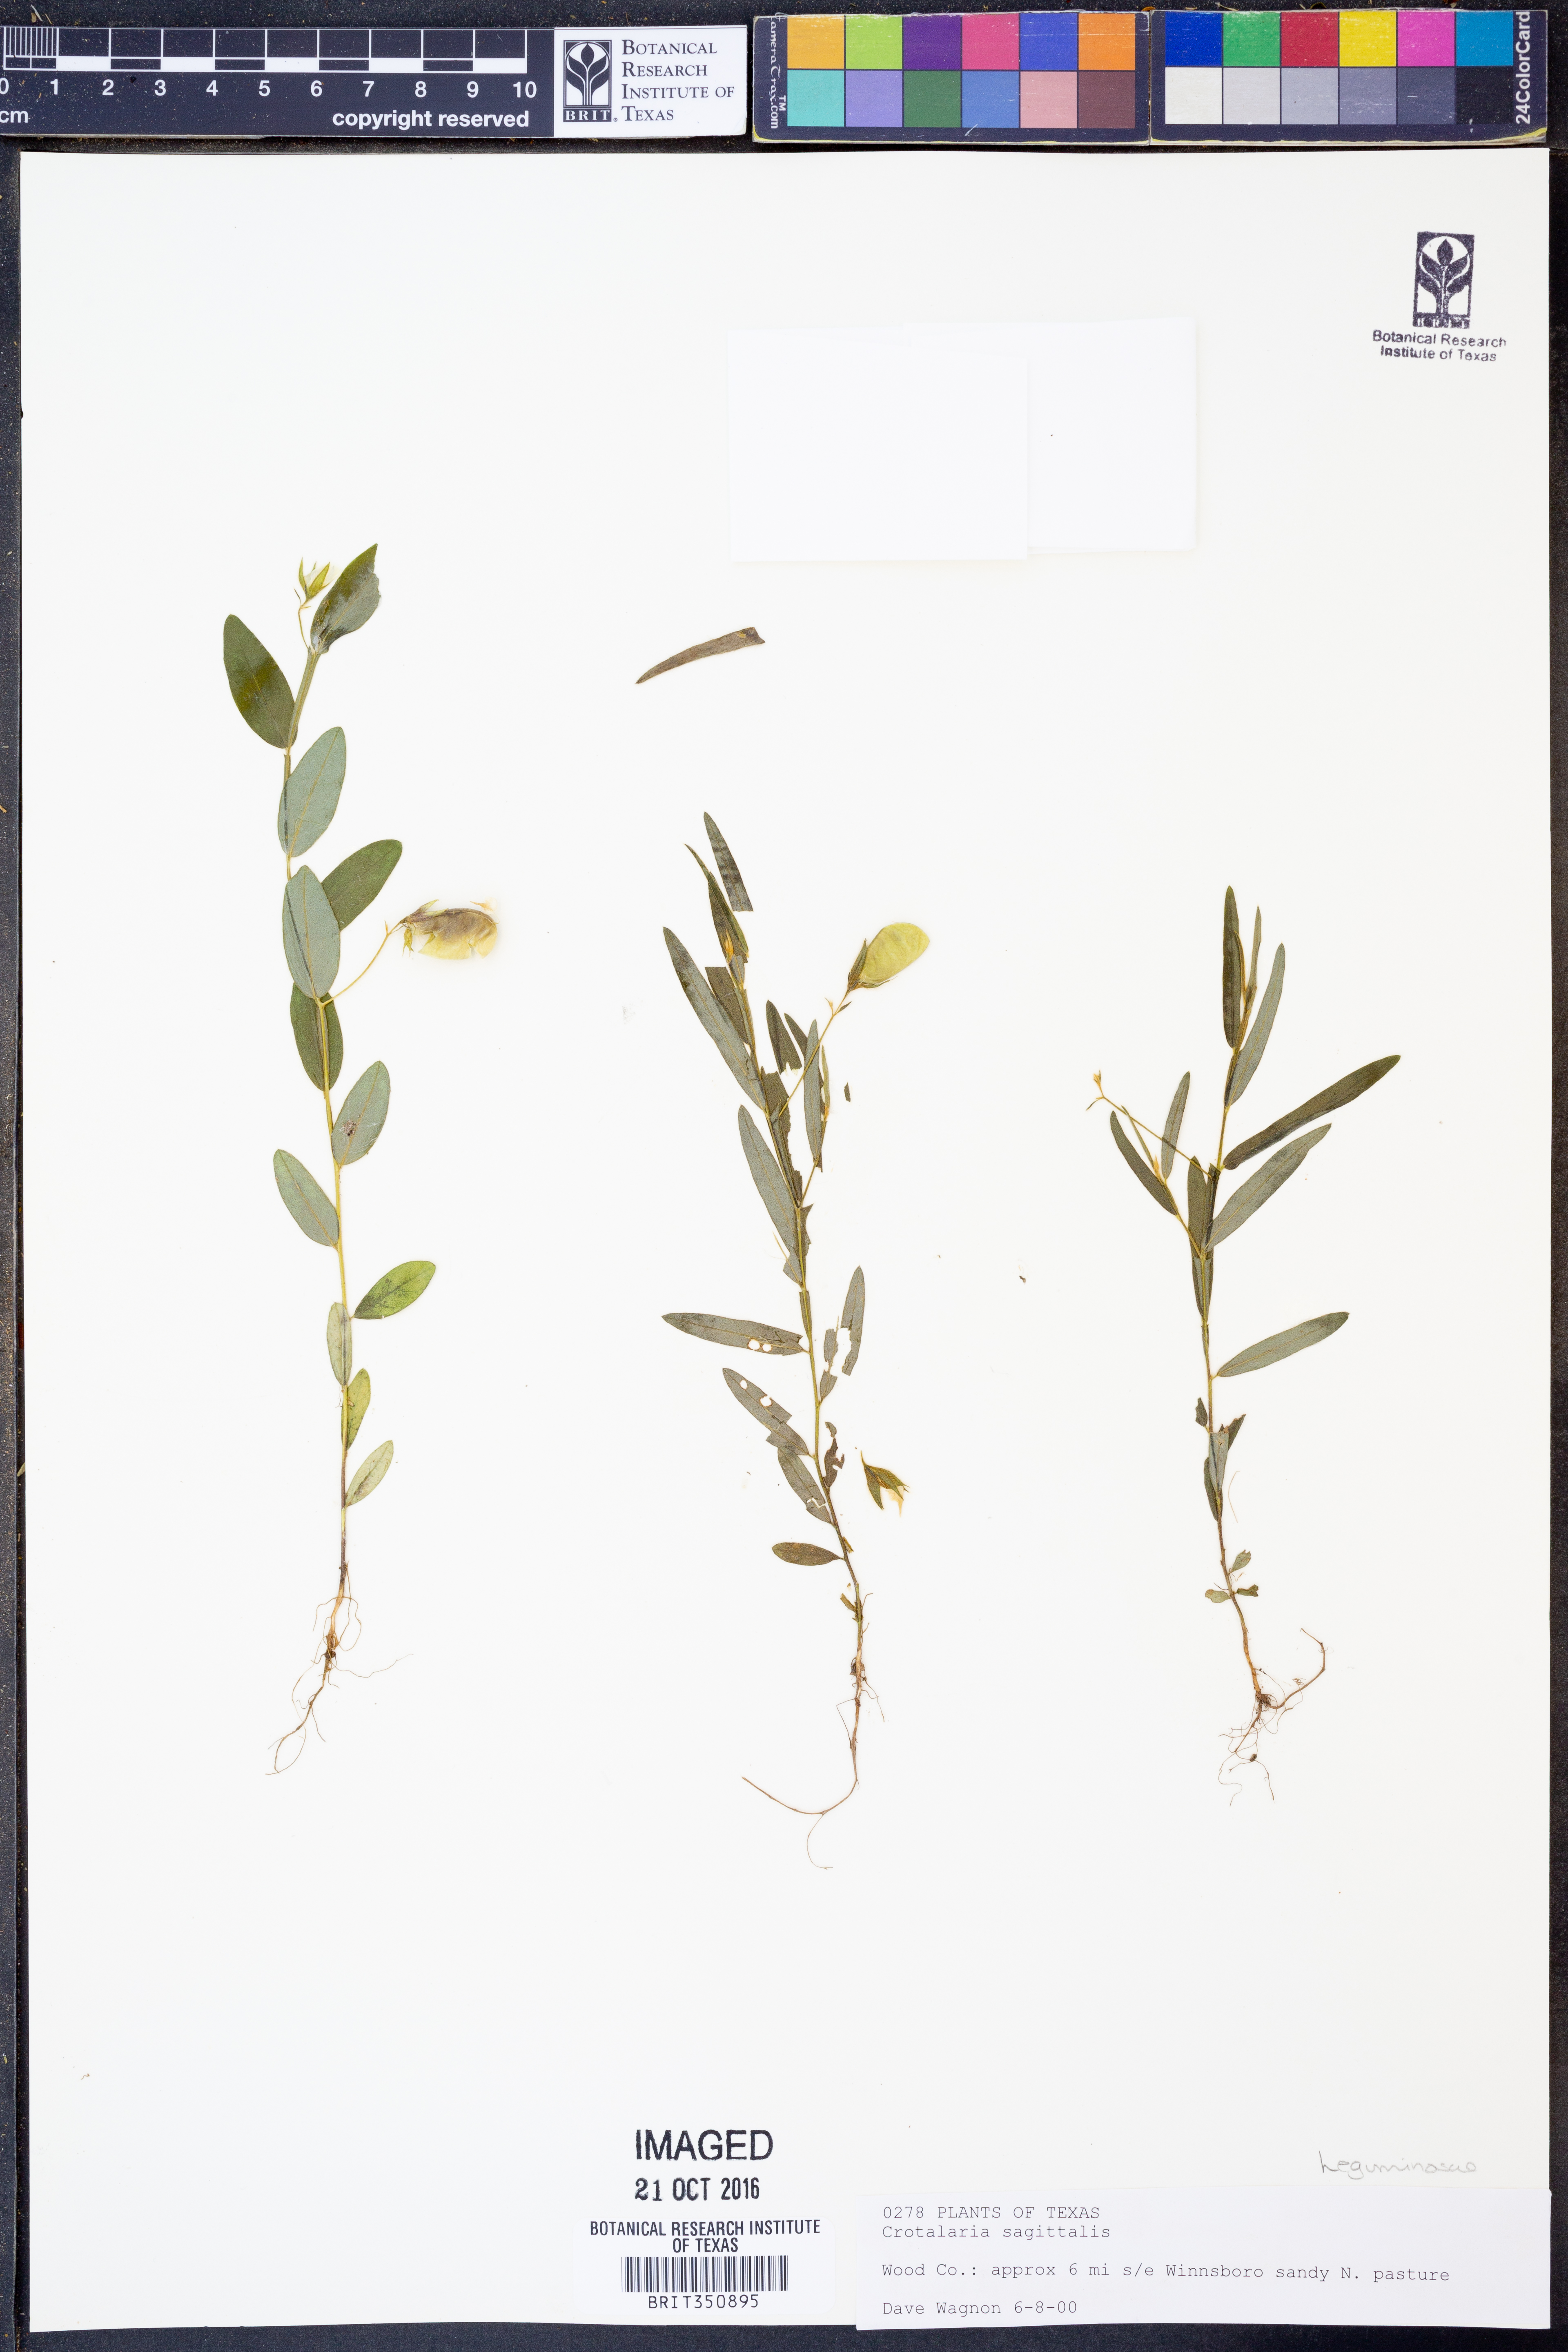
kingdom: Plantae
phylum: Tracheophyta
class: Magnoliopsida
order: Fabales
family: Fabaceae
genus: Crotalaria
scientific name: Crotalaria sagittalis
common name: Arrowhead rattlebox
